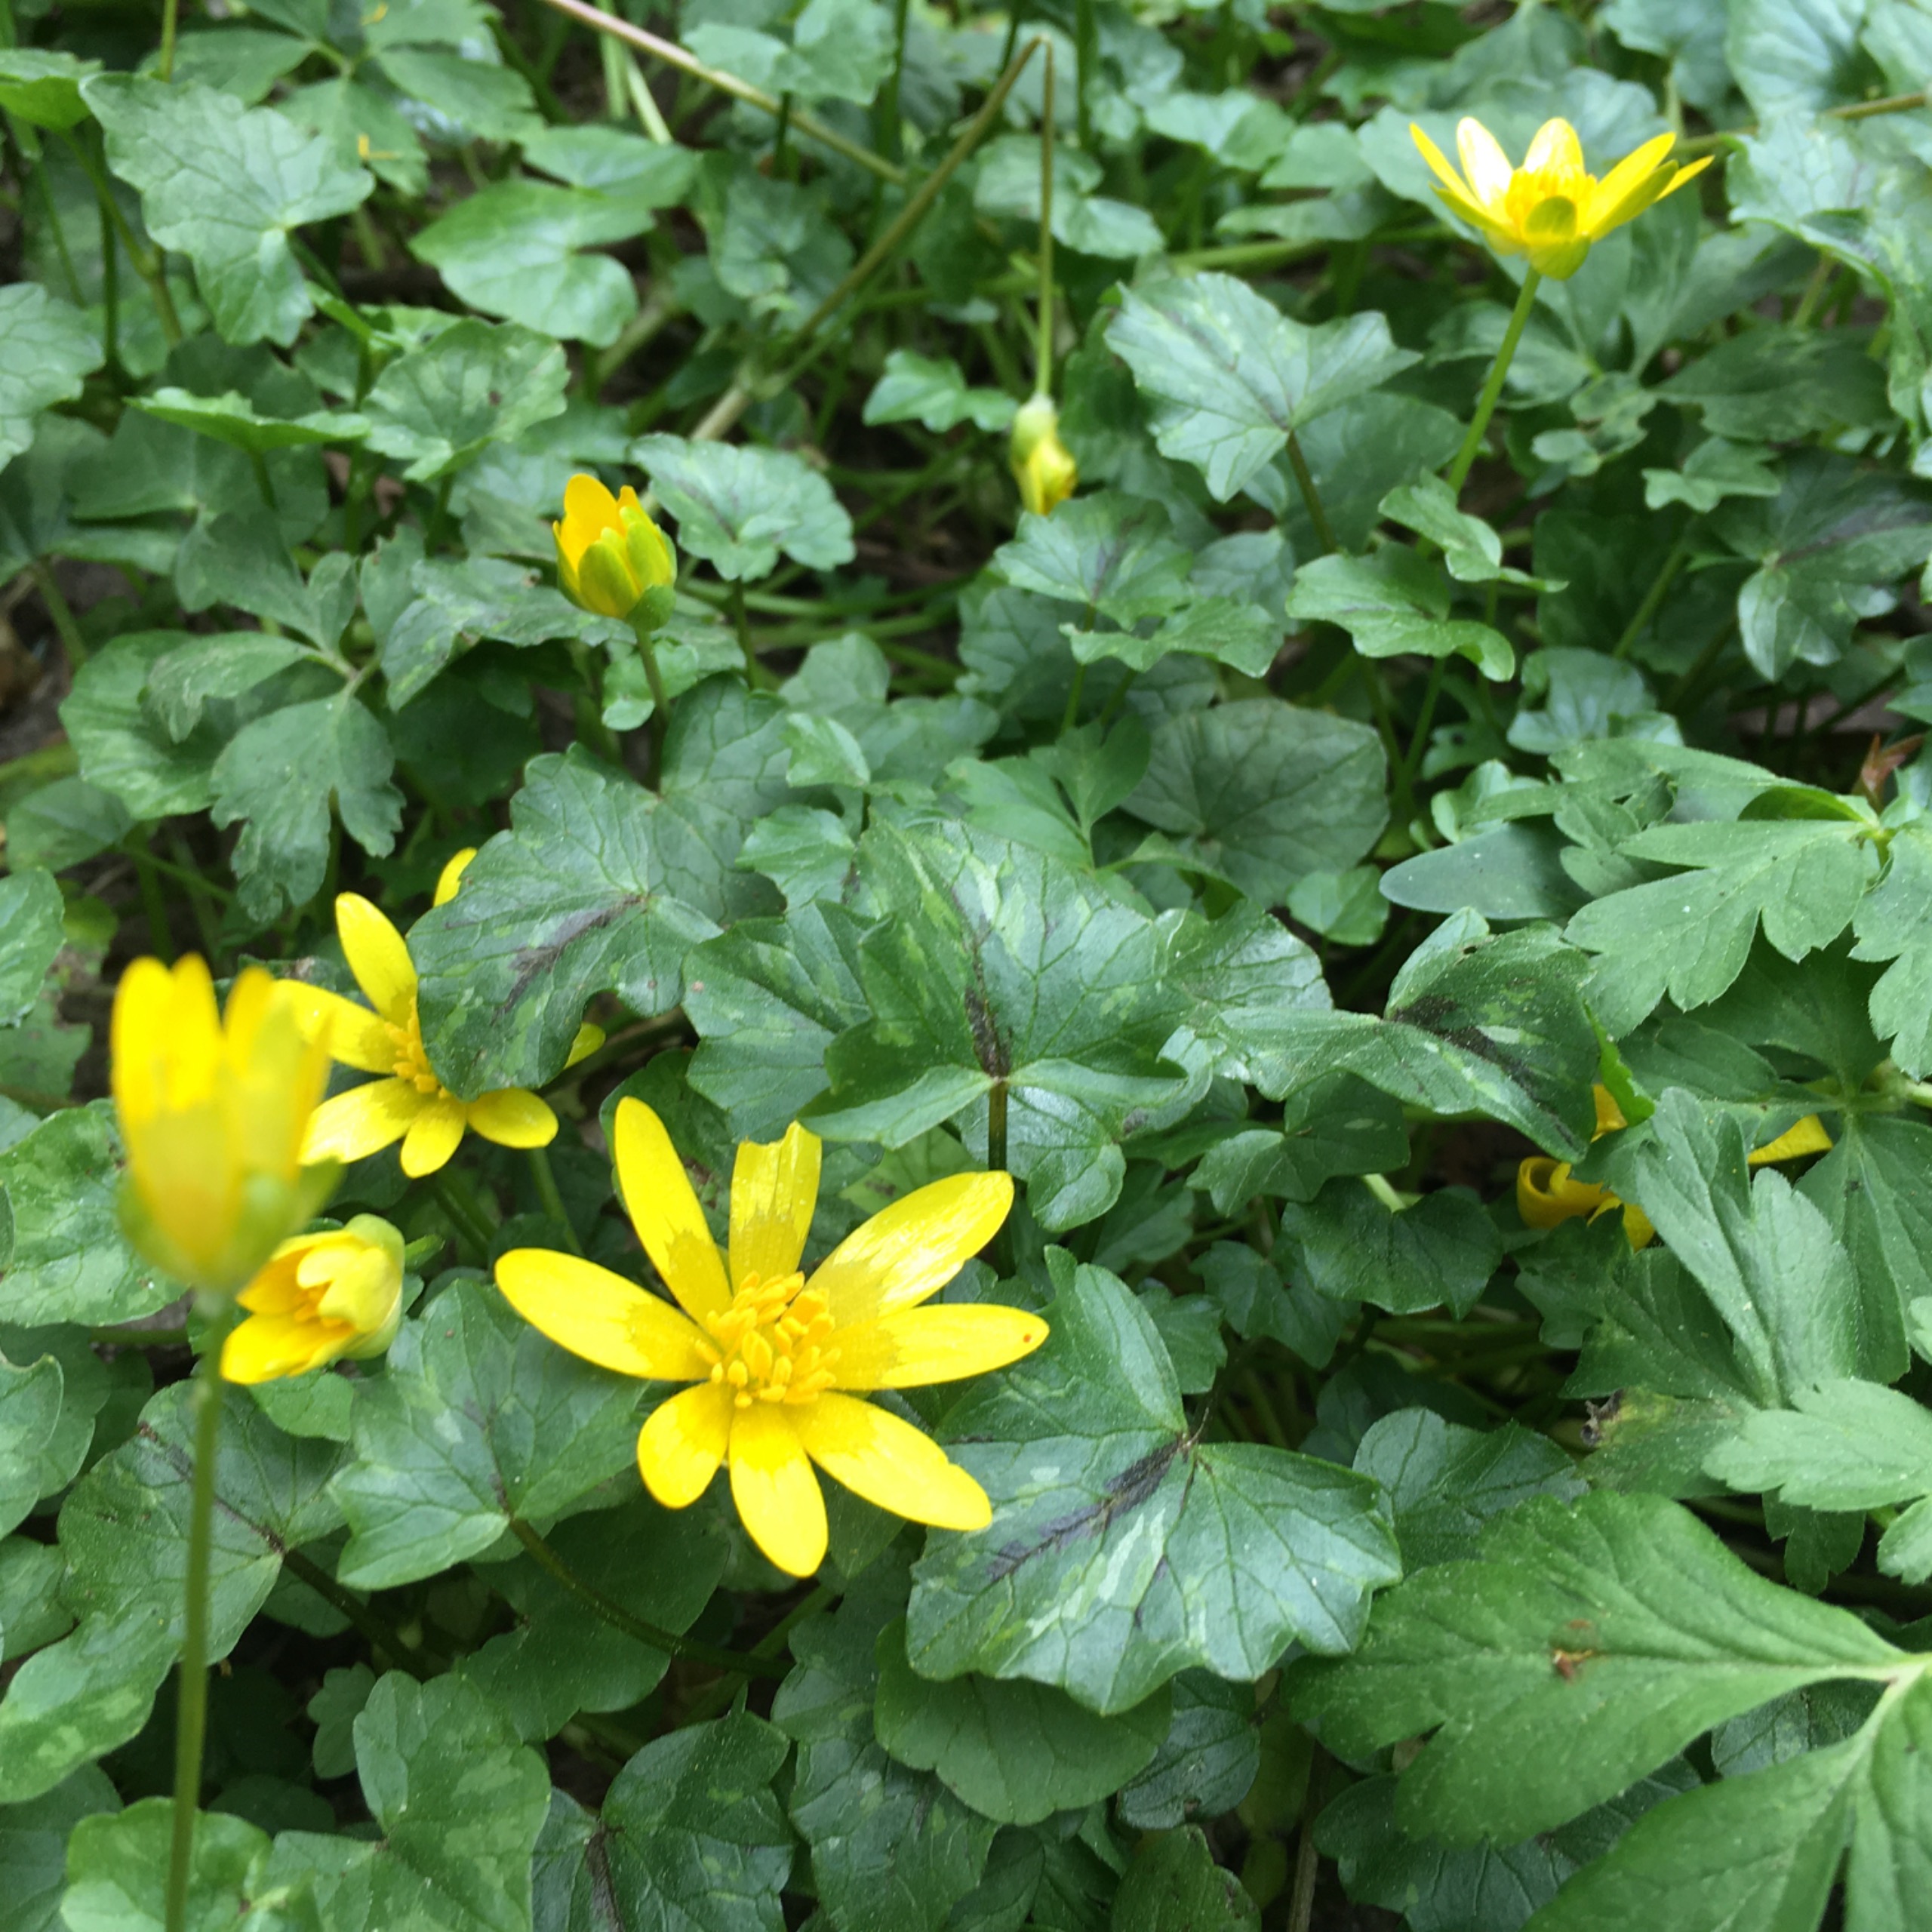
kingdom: Plantae
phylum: Tracheophyta
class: Magnoliopsida
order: Ranunculales
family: Ranunculaceae
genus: Ficaria
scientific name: Ficaria verna
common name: Vorterod
